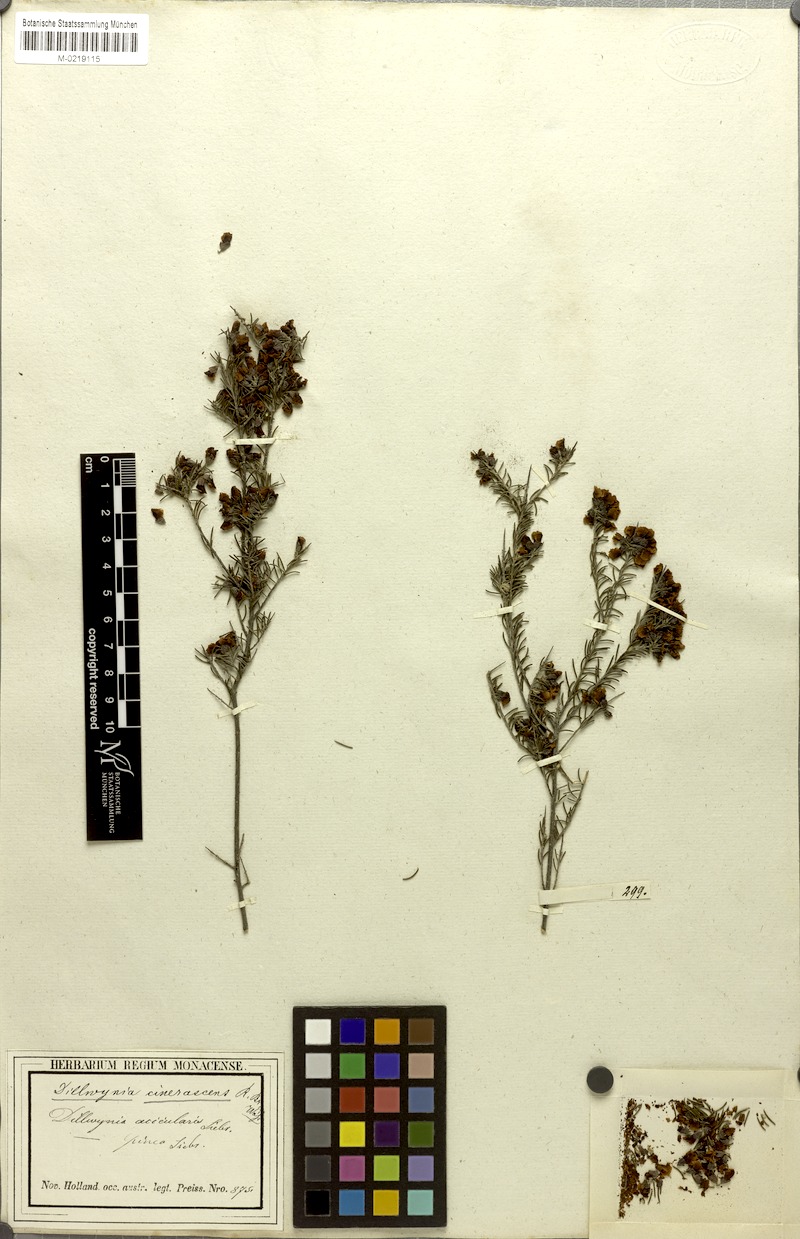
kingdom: Plantae
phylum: Tracheophyta
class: Magnoliopsida
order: Fabales
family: Fabaceae
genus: Dillwynia
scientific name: Dillwynia cinerascens
